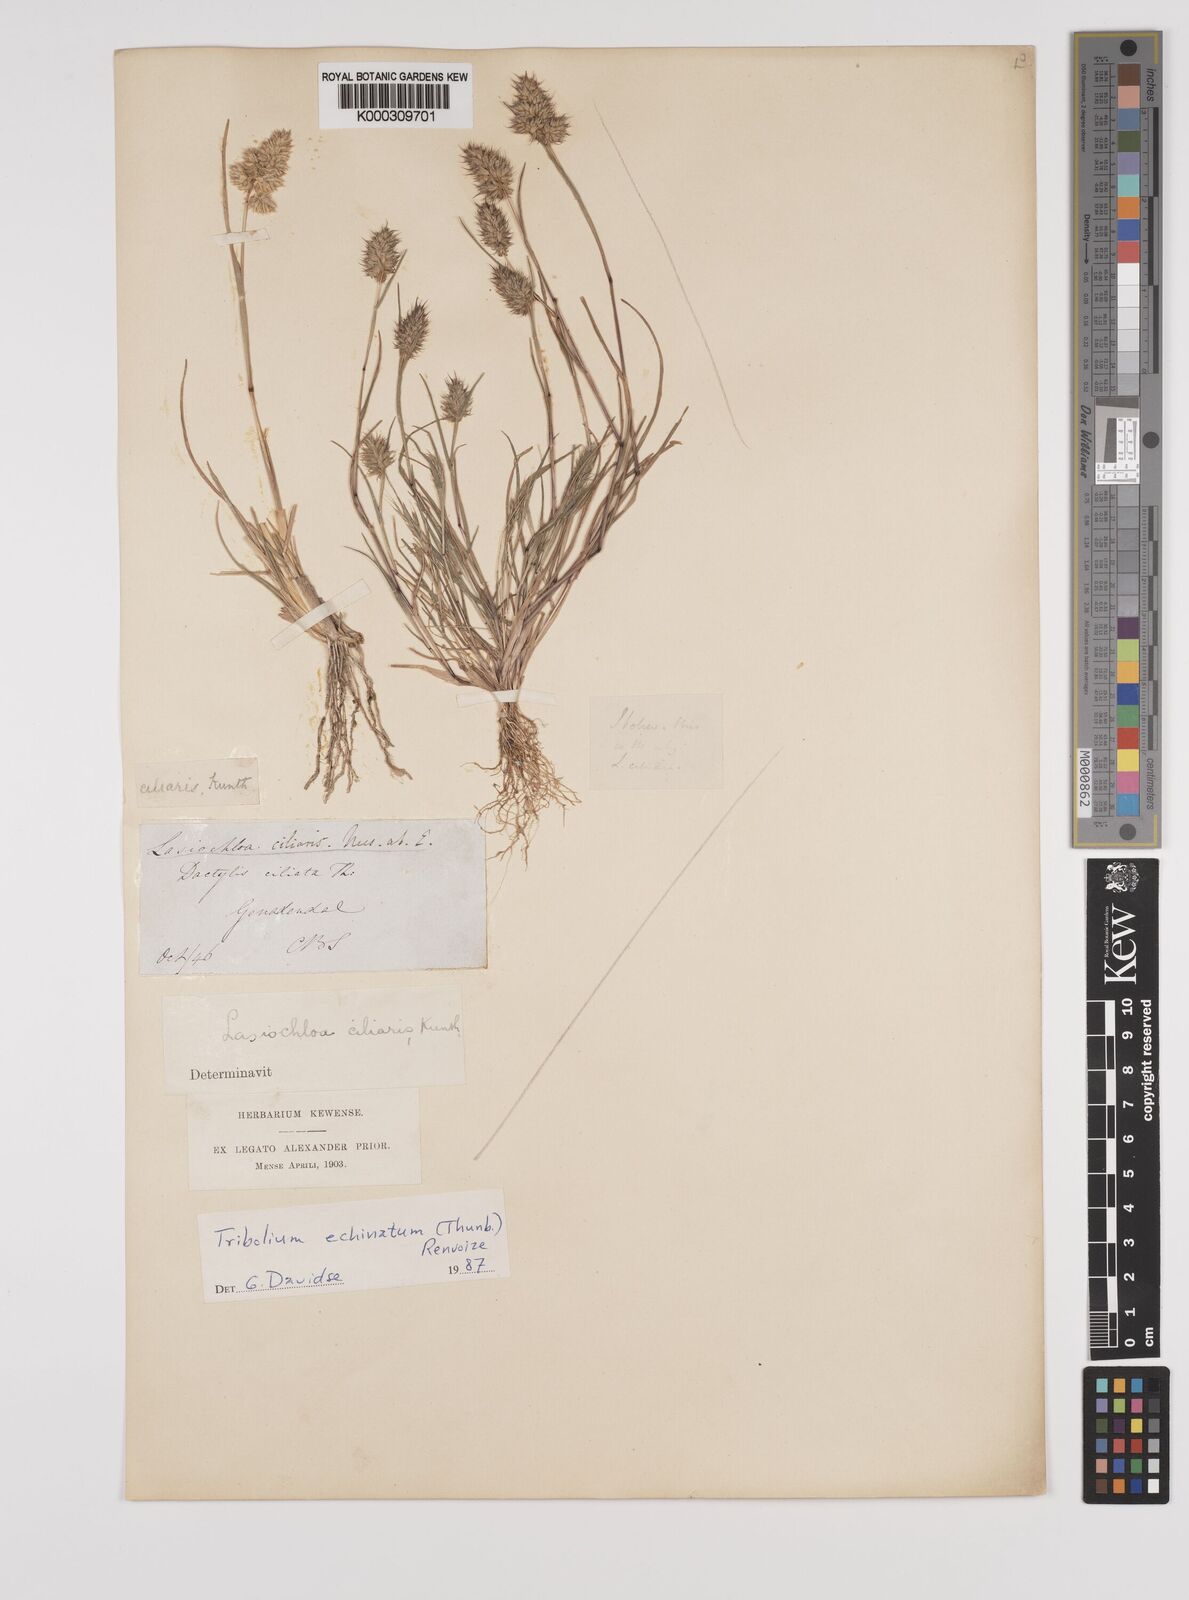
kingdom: Plantae
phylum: Tracheophyta
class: Liliopsida
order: Poales
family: Poaceae
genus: Tribolium
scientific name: Tribolium echinatum
